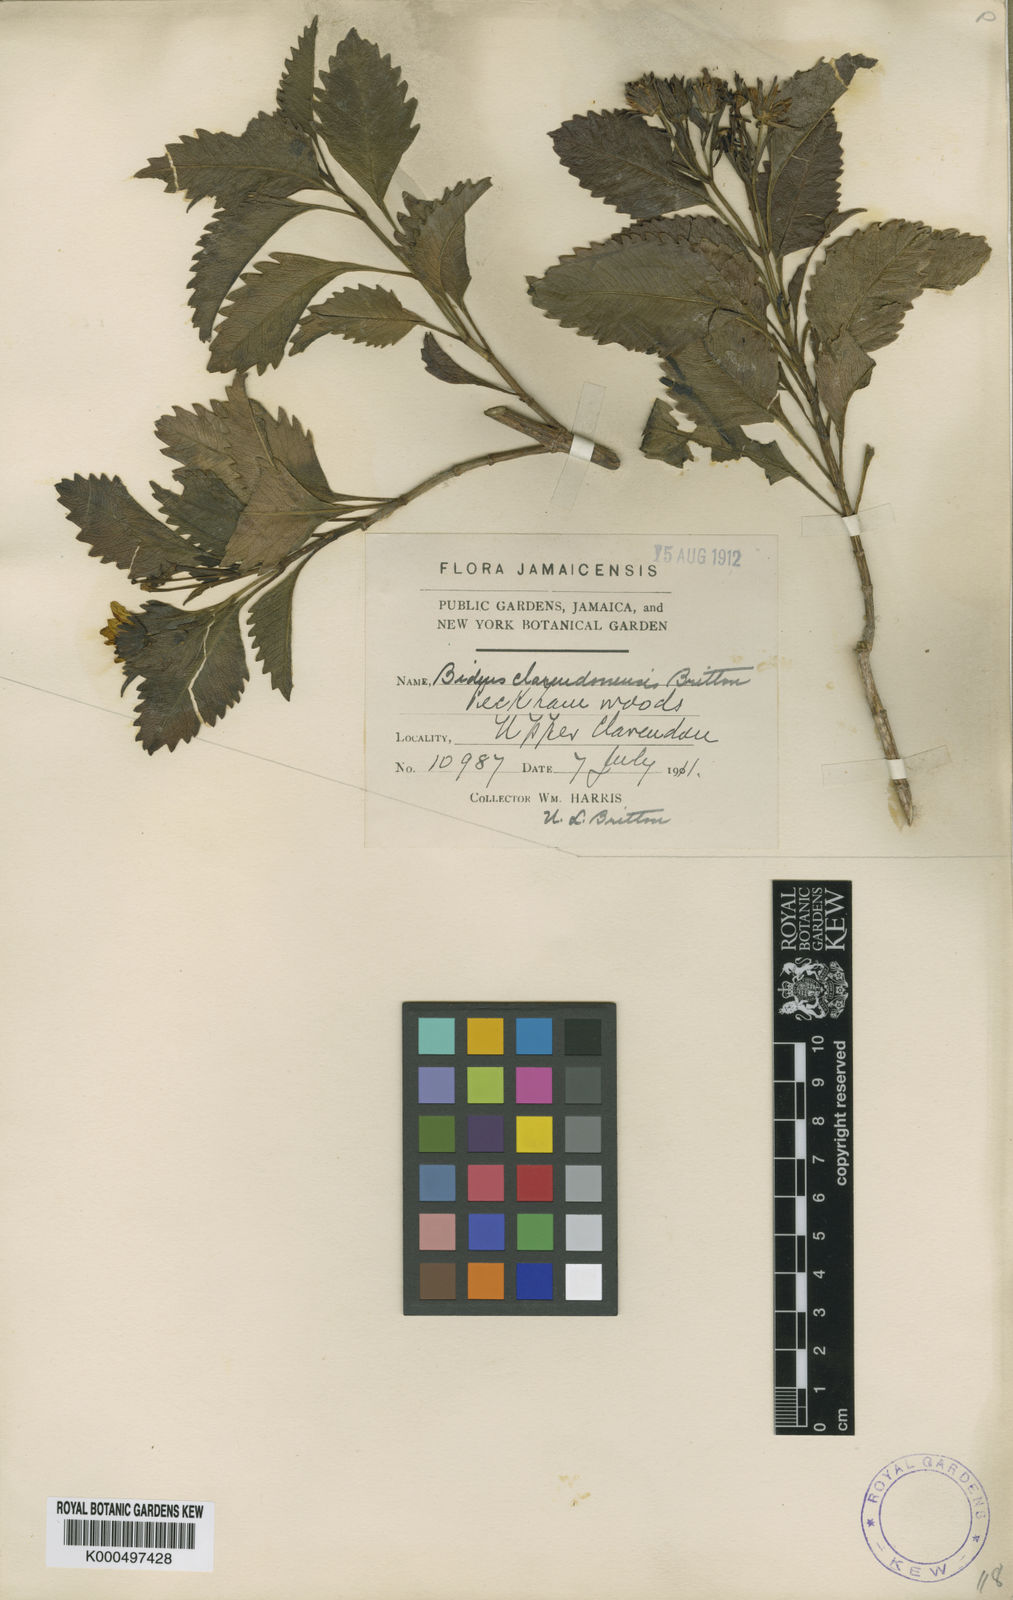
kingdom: Plantae
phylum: Tracheophyta
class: Magnoliopsida
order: Asterales
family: Asteraceae
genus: Bidens
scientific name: Bidens clarendonensis
